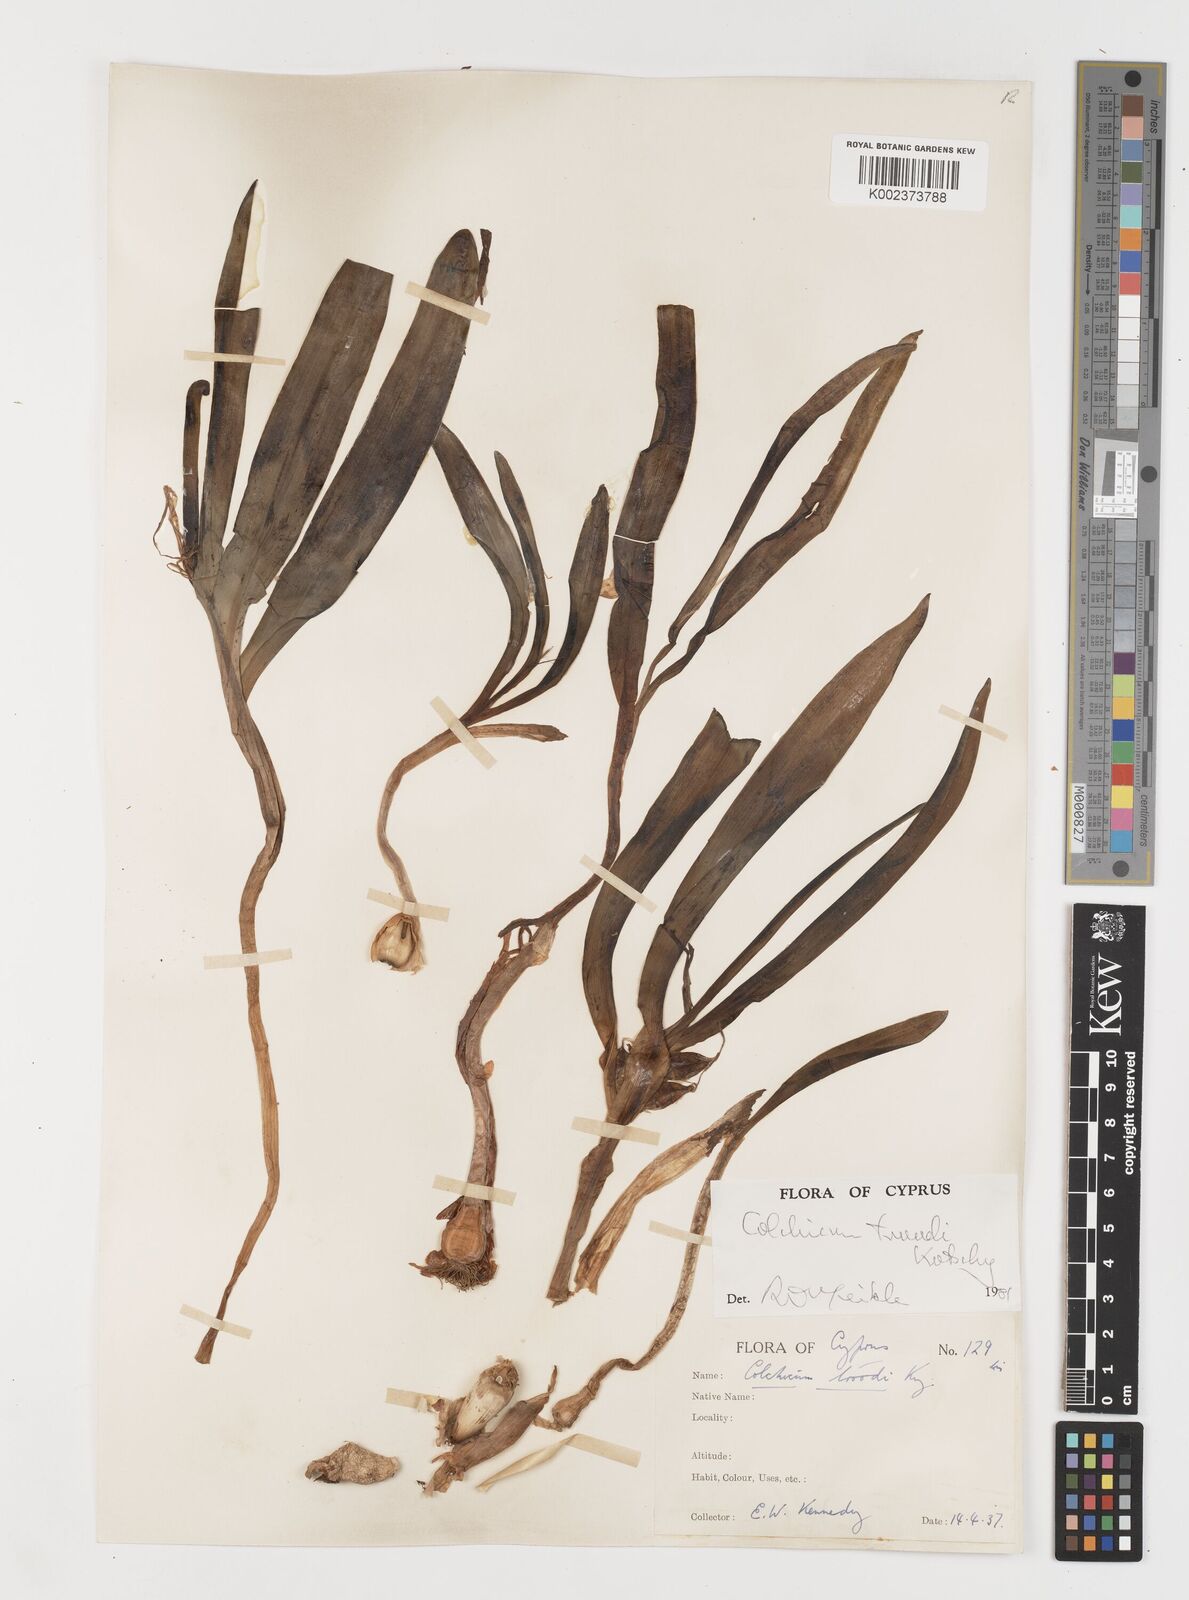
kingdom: Plantae
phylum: Tracheophyta
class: Liliopsida
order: Liliales
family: Colchicaceae
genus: Colchicum
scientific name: Colchicum
